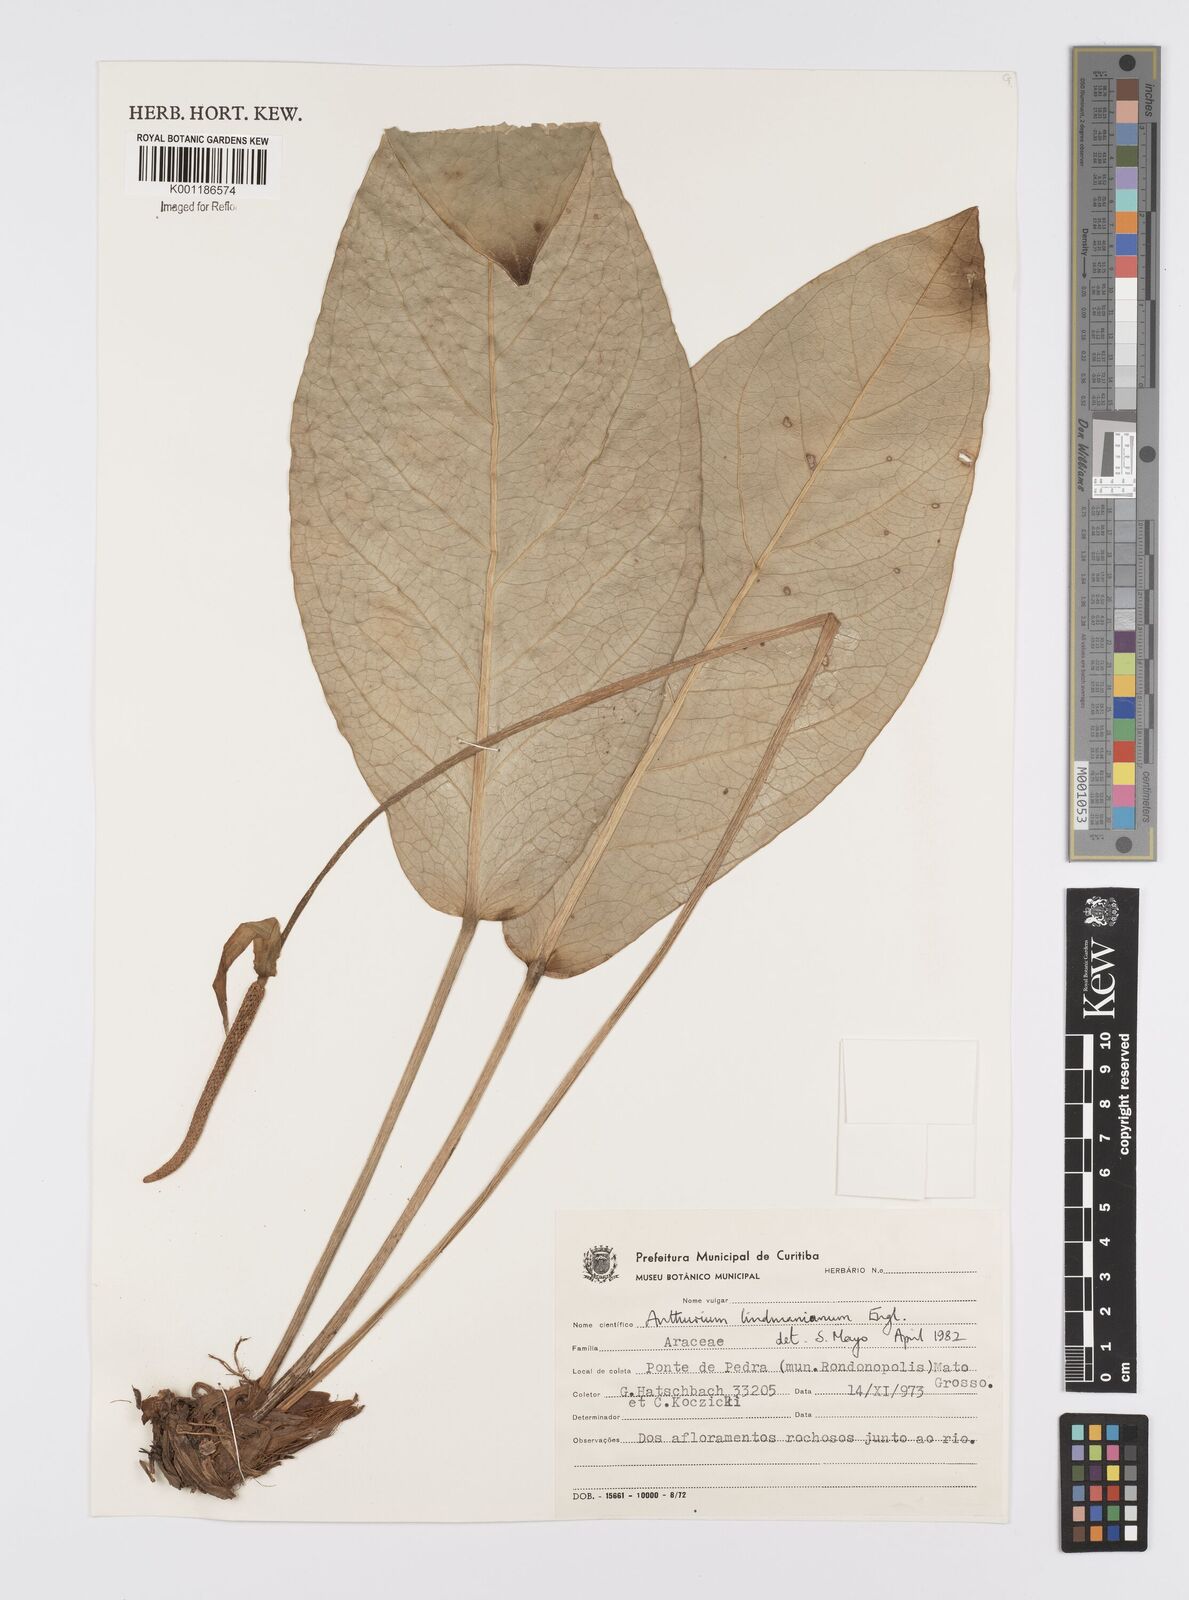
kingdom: Plantae
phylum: Tracheophyta
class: Liliopsida
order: Alismatales
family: Araceae
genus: Anthurium
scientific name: Anthurium lindmanianum
